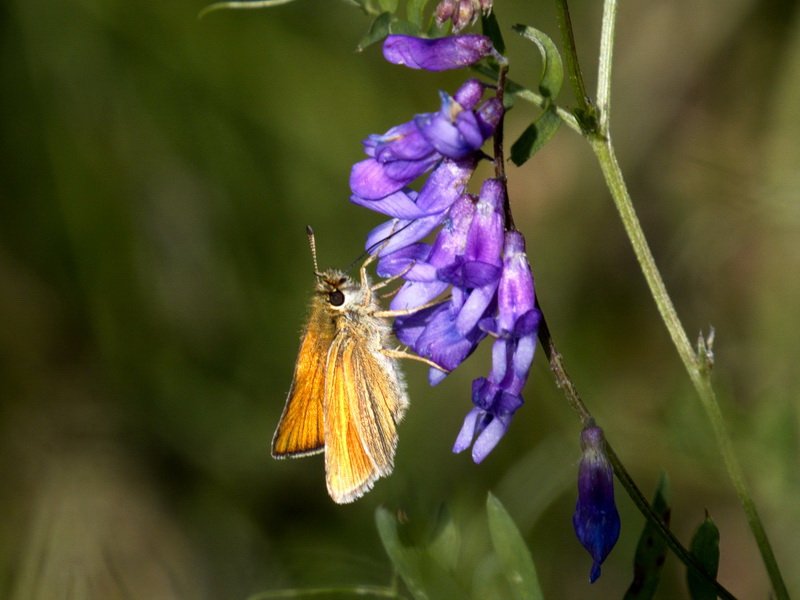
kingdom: Animalia
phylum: Arthropoda
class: Insecta
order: Lepidoptera
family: Hesperiidae
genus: Thymelicus
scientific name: Thymelicus lineola
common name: European Skipper
